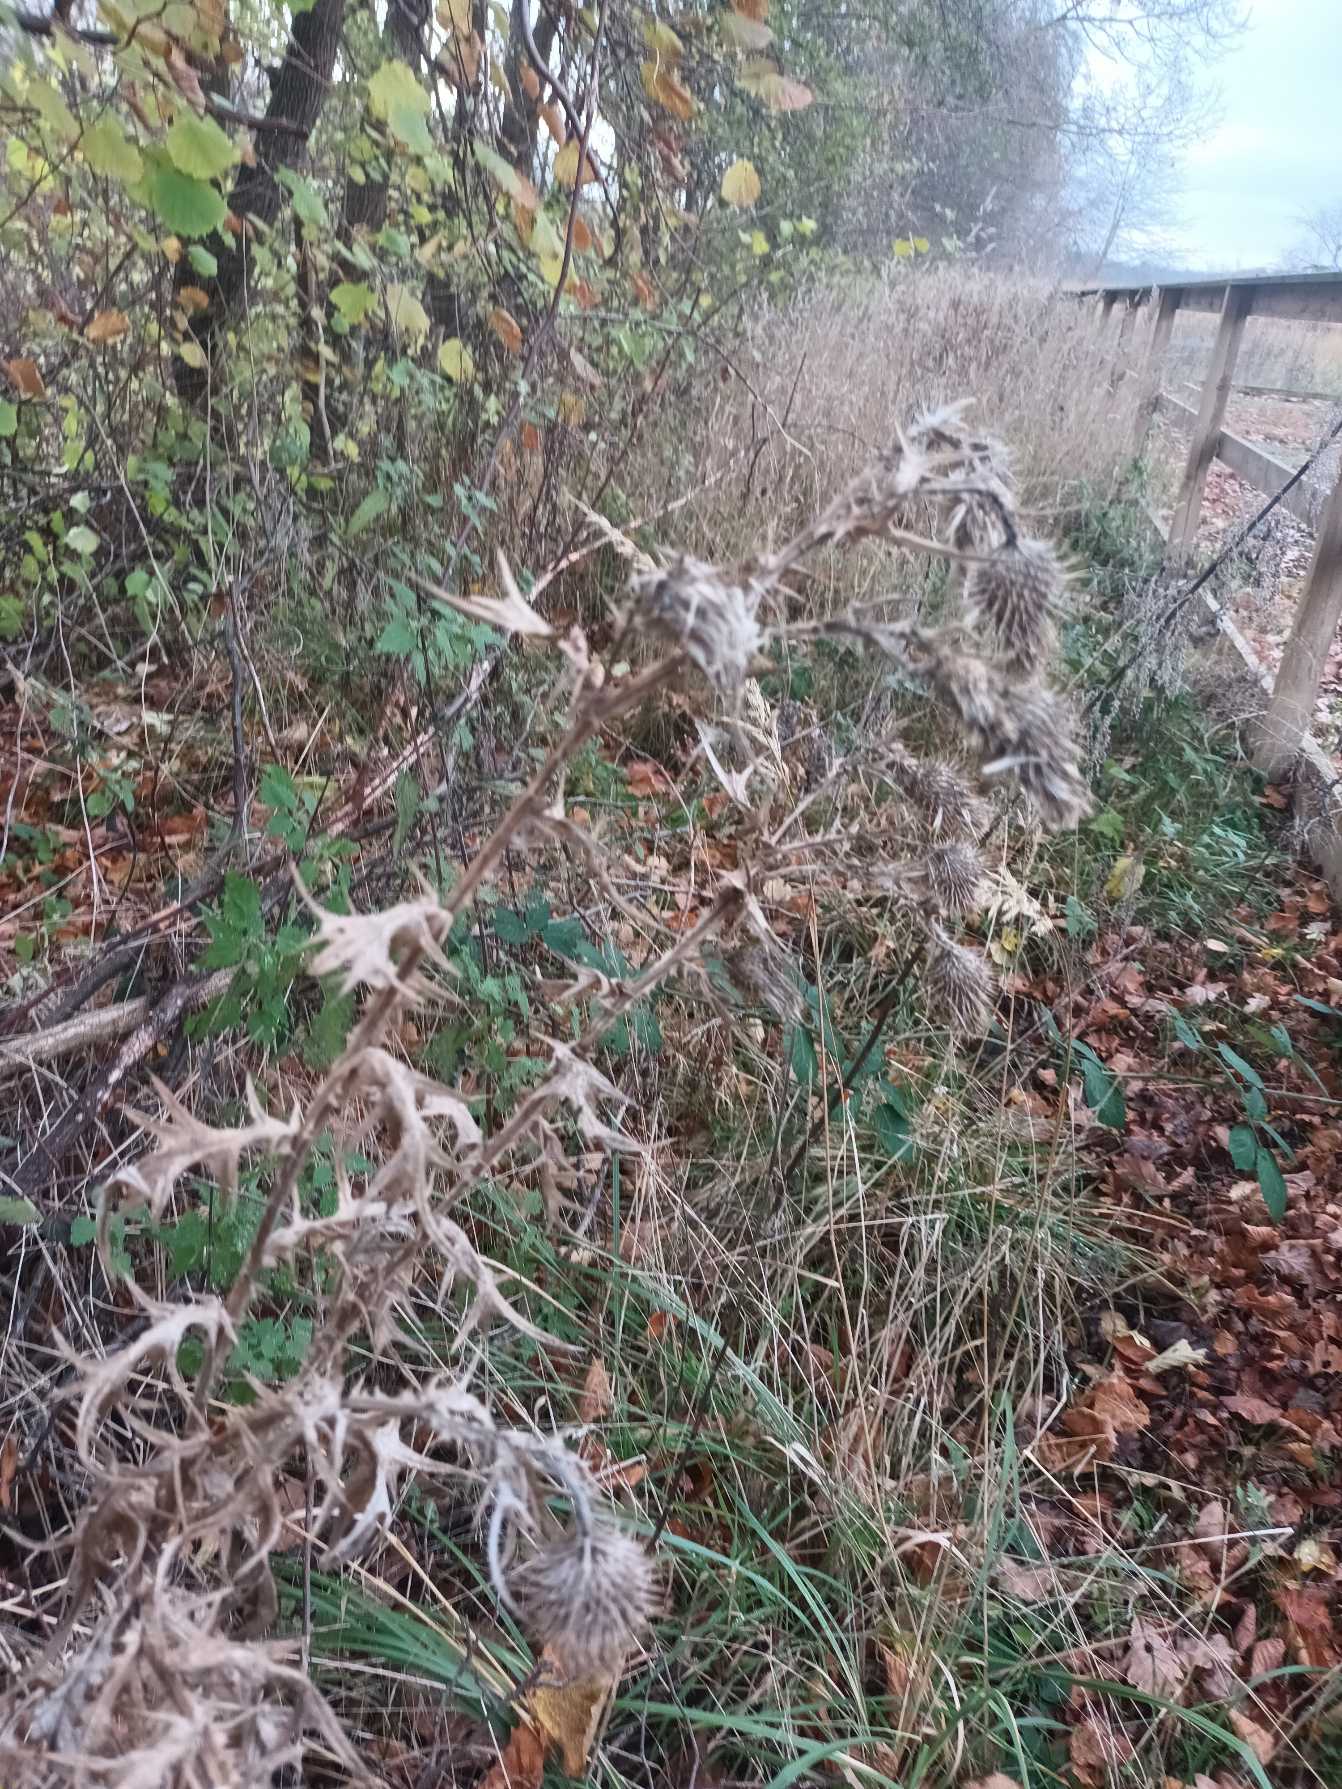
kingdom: Plantae
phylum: Tracheophyta
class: Magnoliopsida
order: Asterales
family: Asteraceae
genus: Cirsium
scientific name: Cirsium vulgare
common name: Horse-tidsel
